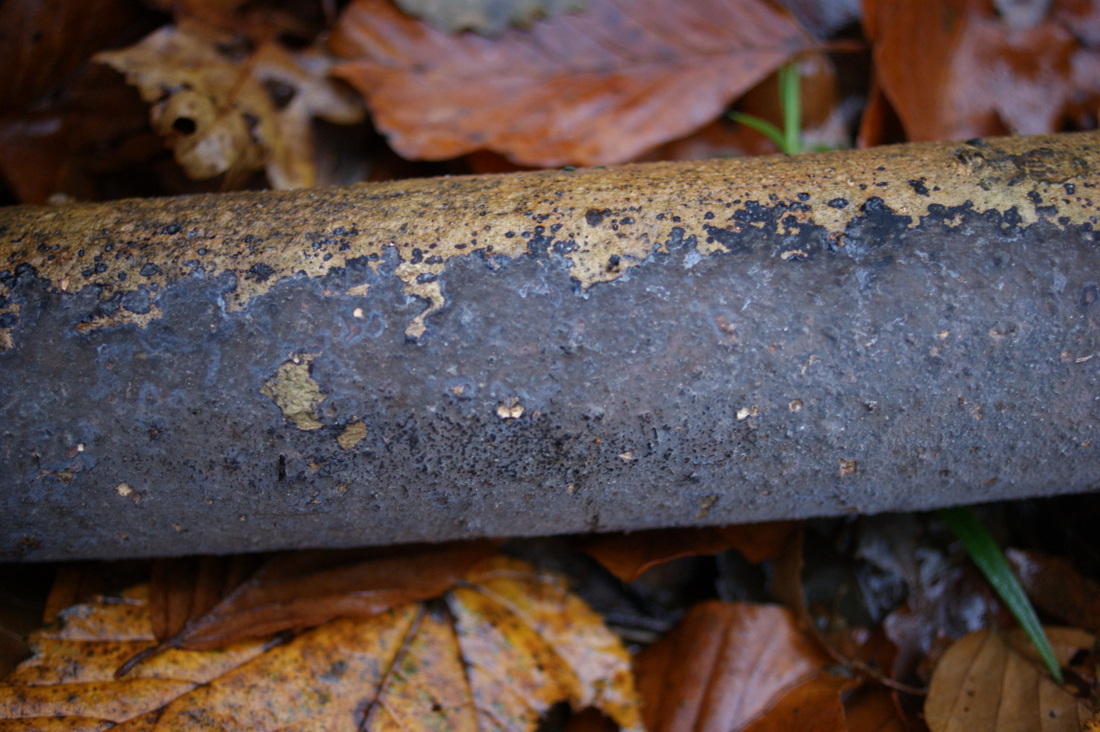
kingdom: Fungi
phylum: Basidiomycota
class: Agaricomycetes
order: Russulales
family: Peniophoraceae
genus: Peniophora
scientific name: Peniophora limitata
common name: mørkrandet voksskind
